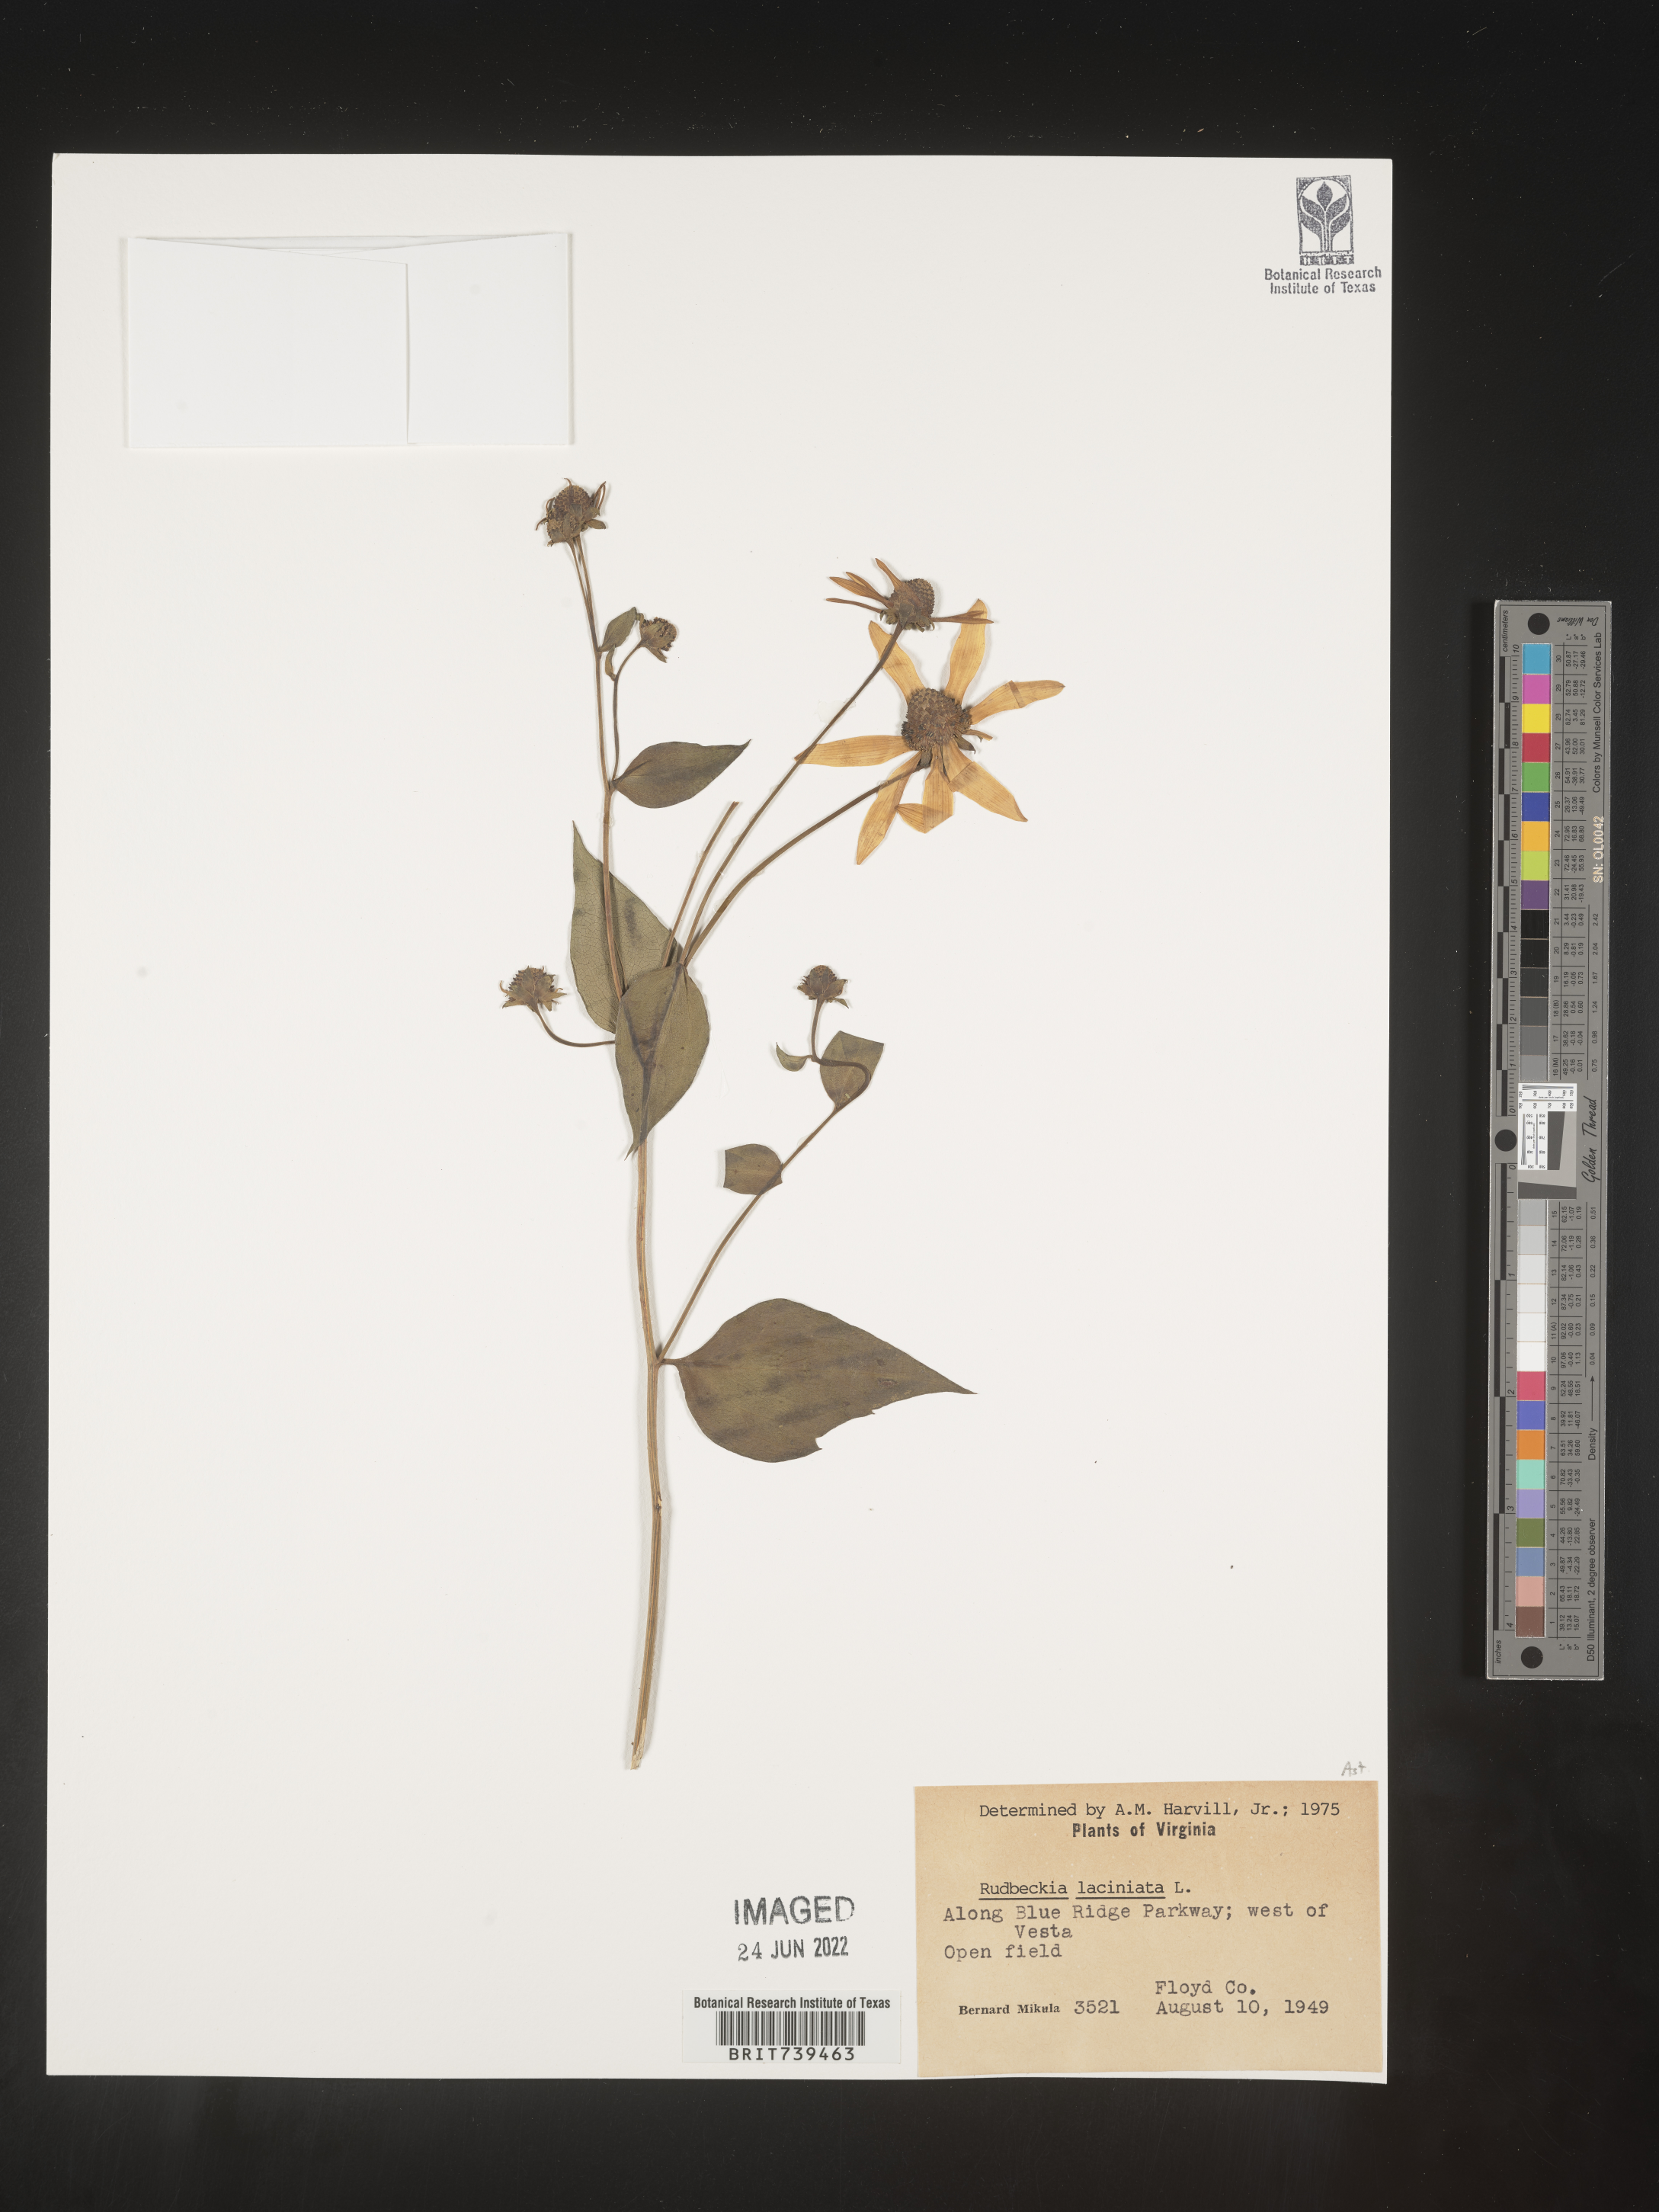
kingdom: Plantae
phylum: Tracheophyta
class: Magnoliopsida
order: Asterales
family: Asteraceae
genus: Rudbeckia
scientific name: Rudbeckia laciniata
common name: Coneflower
